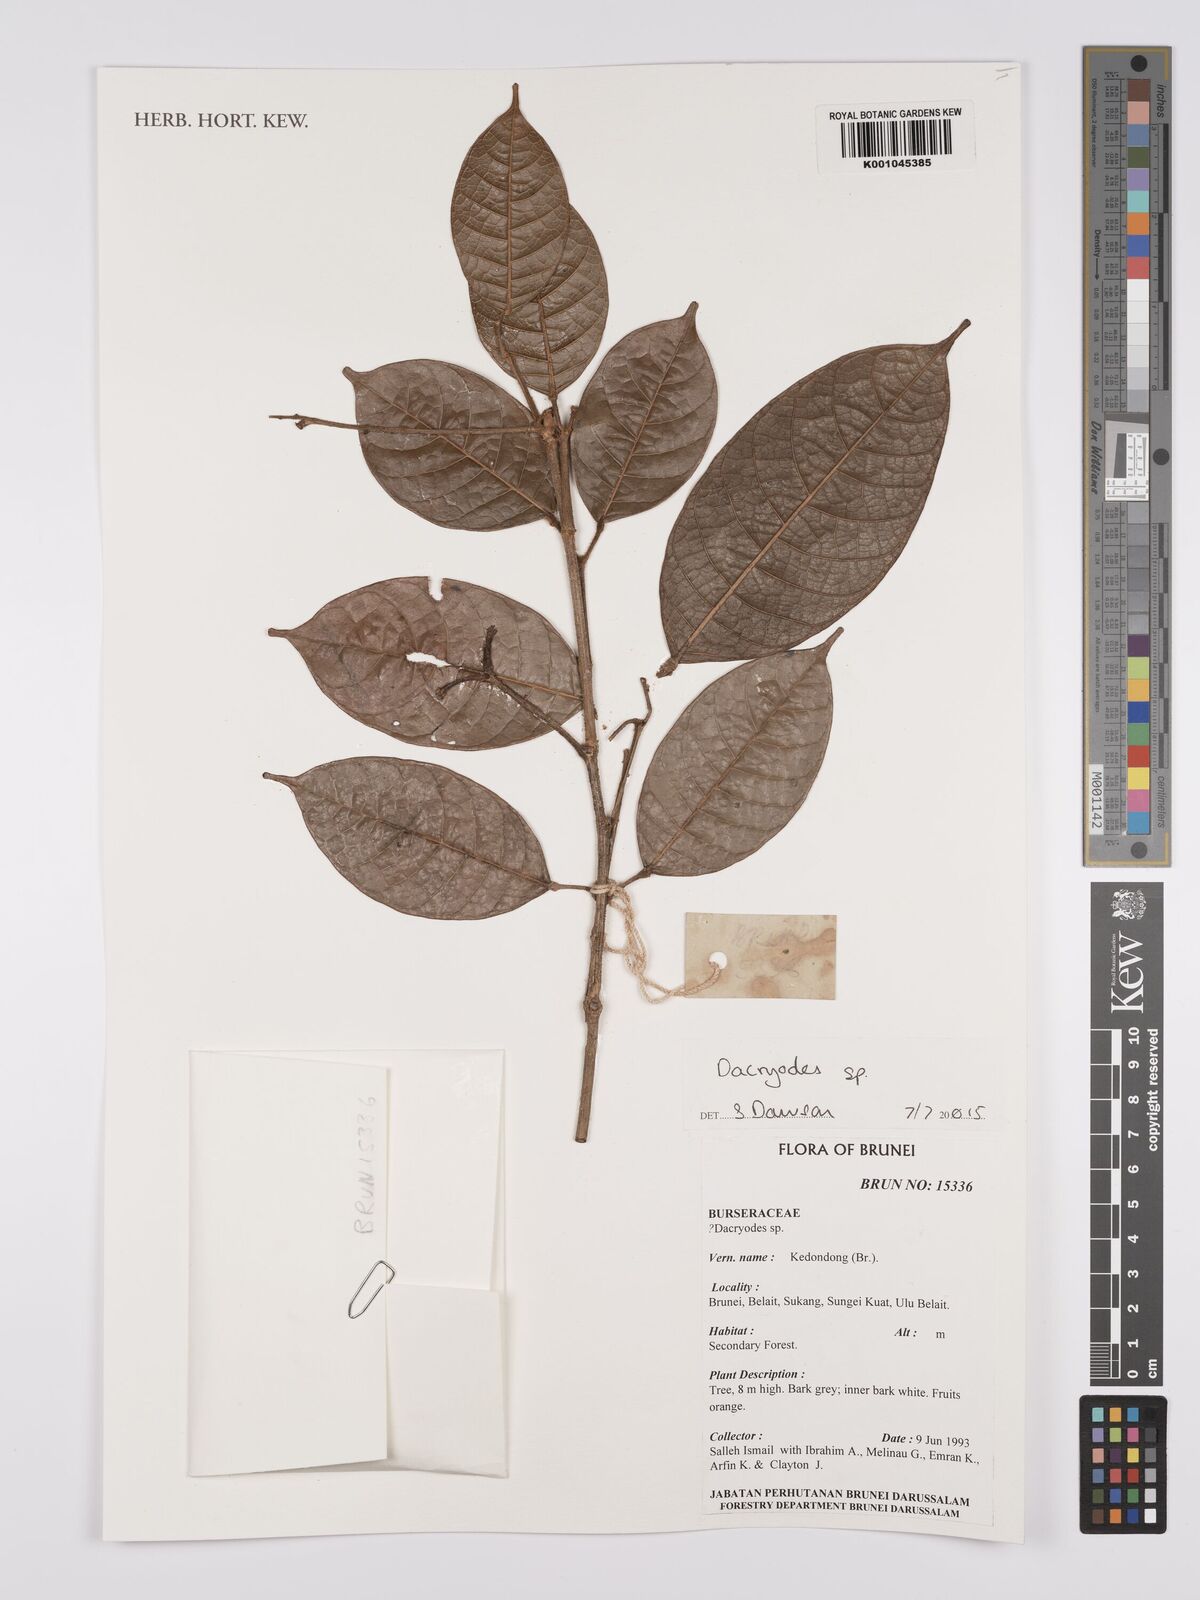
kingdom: Plantae
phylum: Tracheophyta
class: Magnoliopsida
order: Sapindales
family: Burseraceae
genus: Dacryodes
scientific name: Dacryodes
